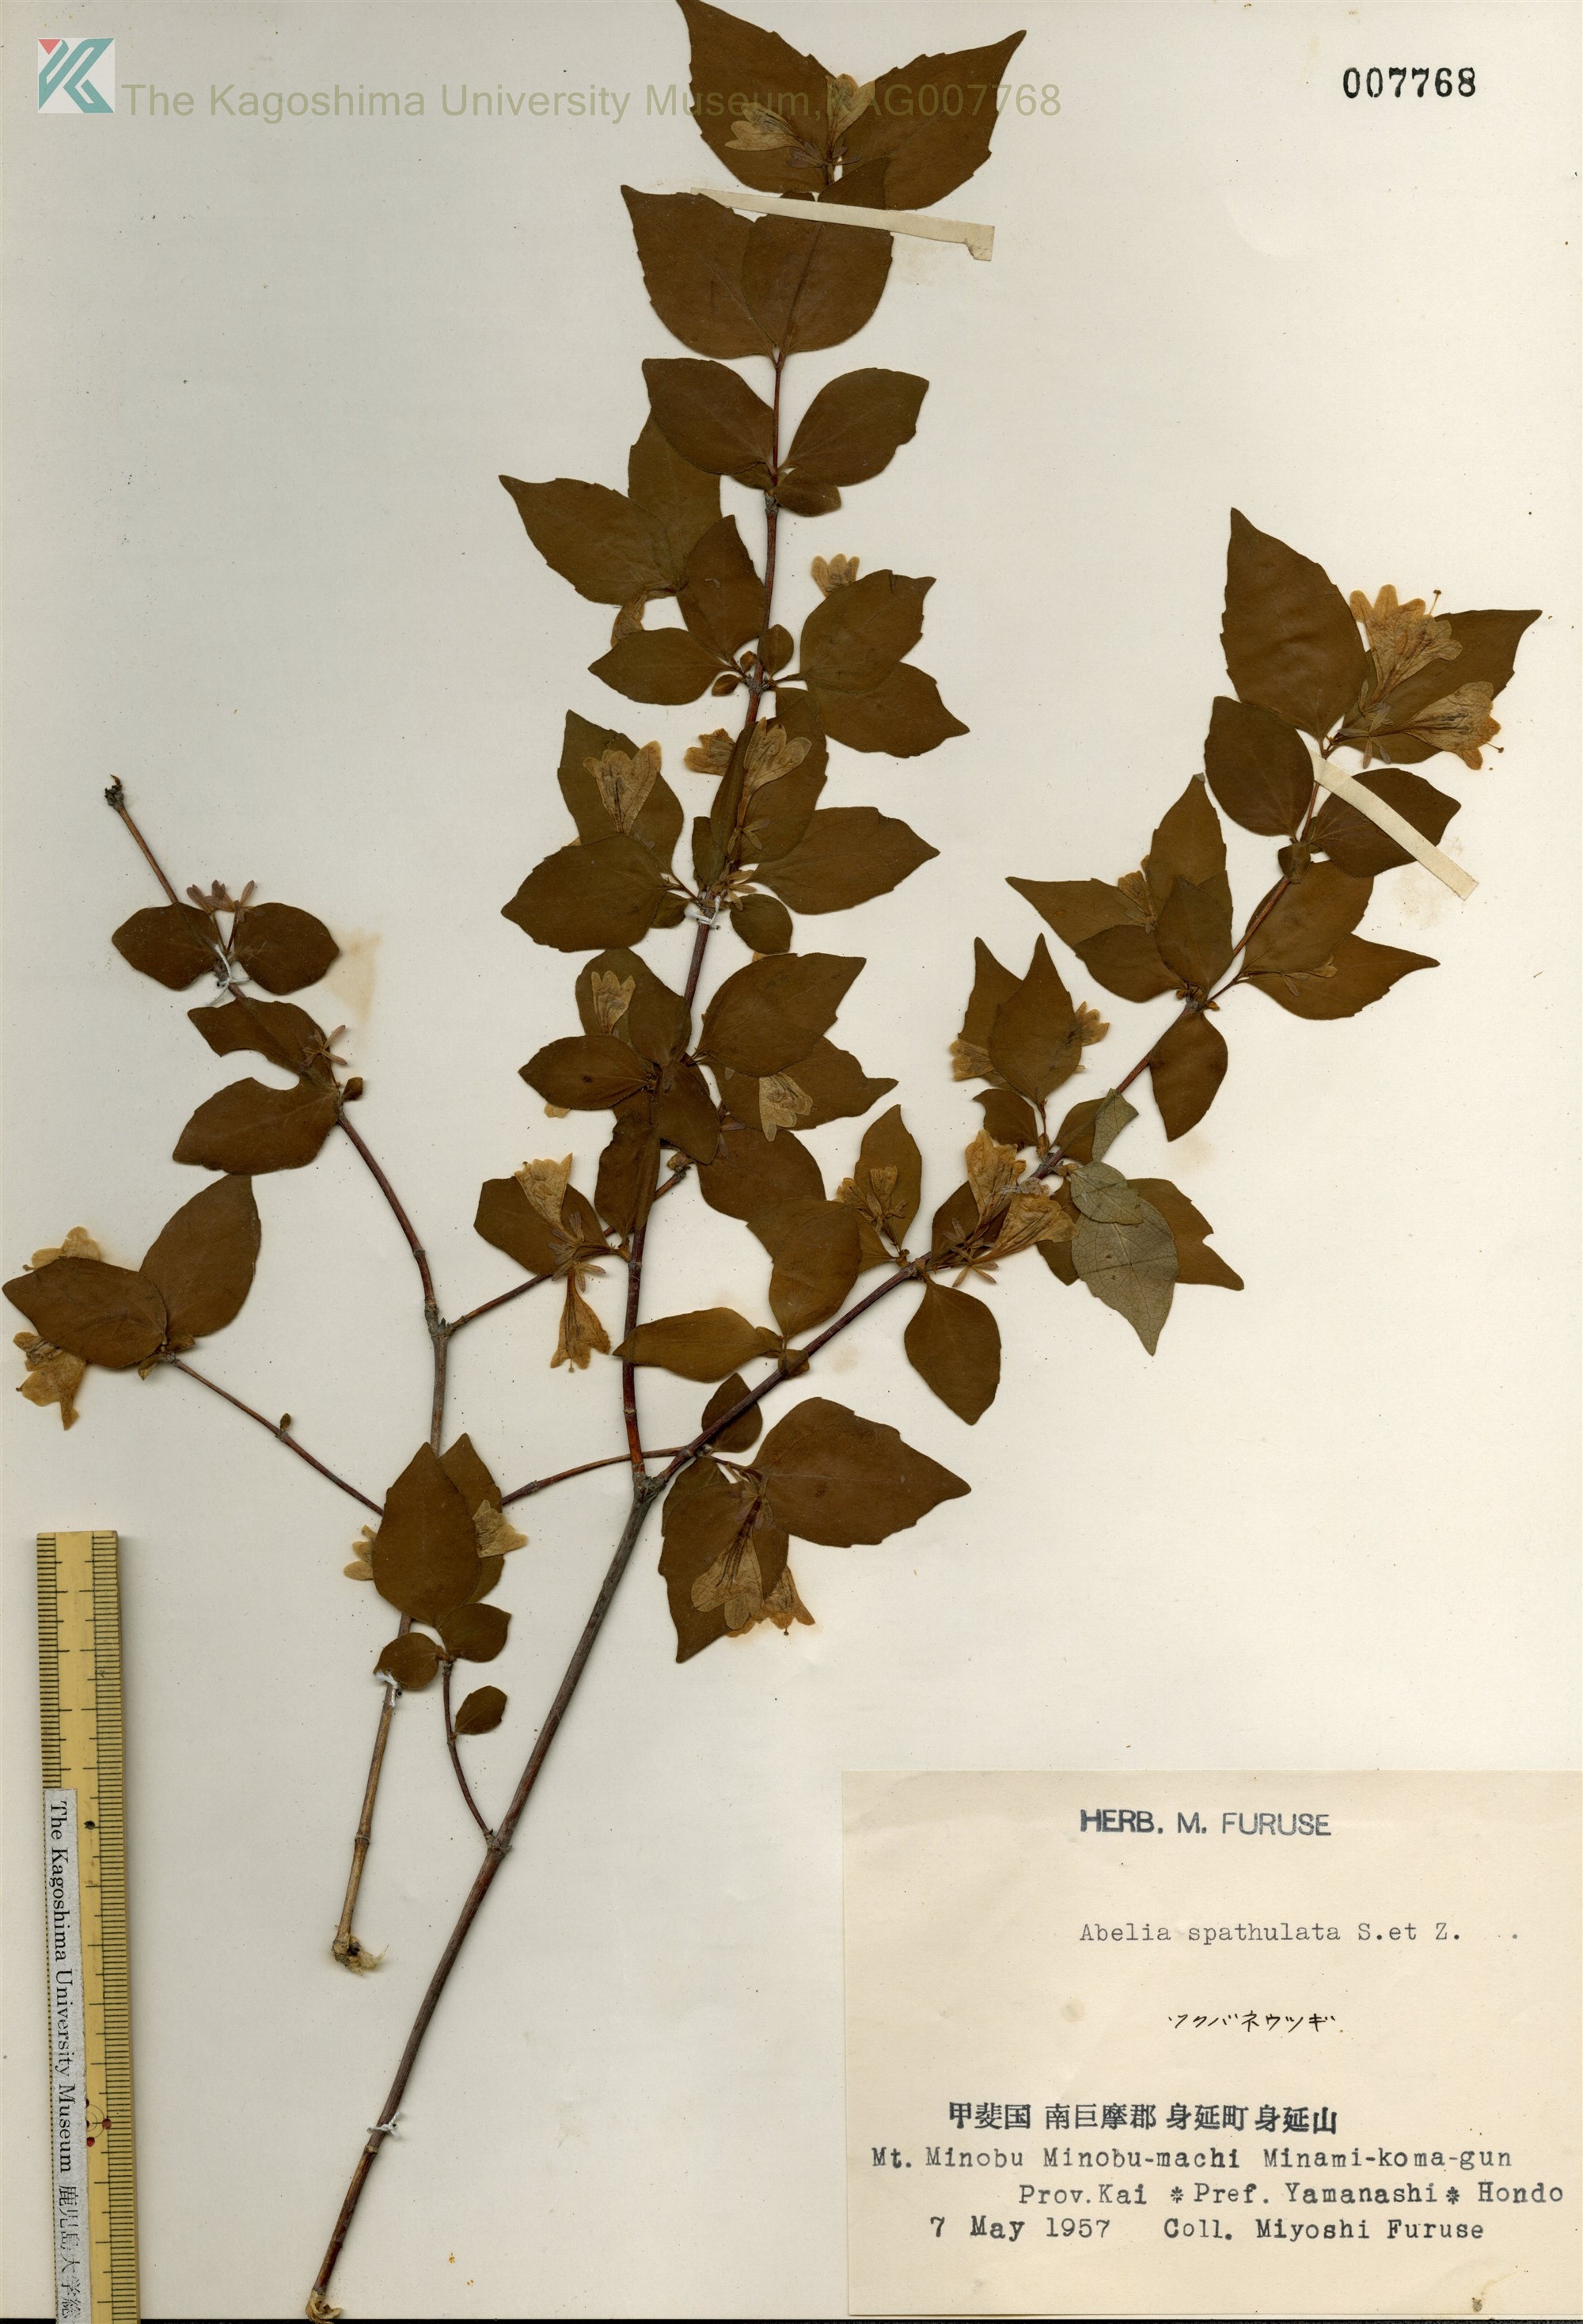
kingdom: Plantae
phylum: Tracheophyta
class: Magnoliopsida
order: Dipsacales
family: Caprifoliaceae
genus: Diabelia
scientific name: Diabelia spathulata
